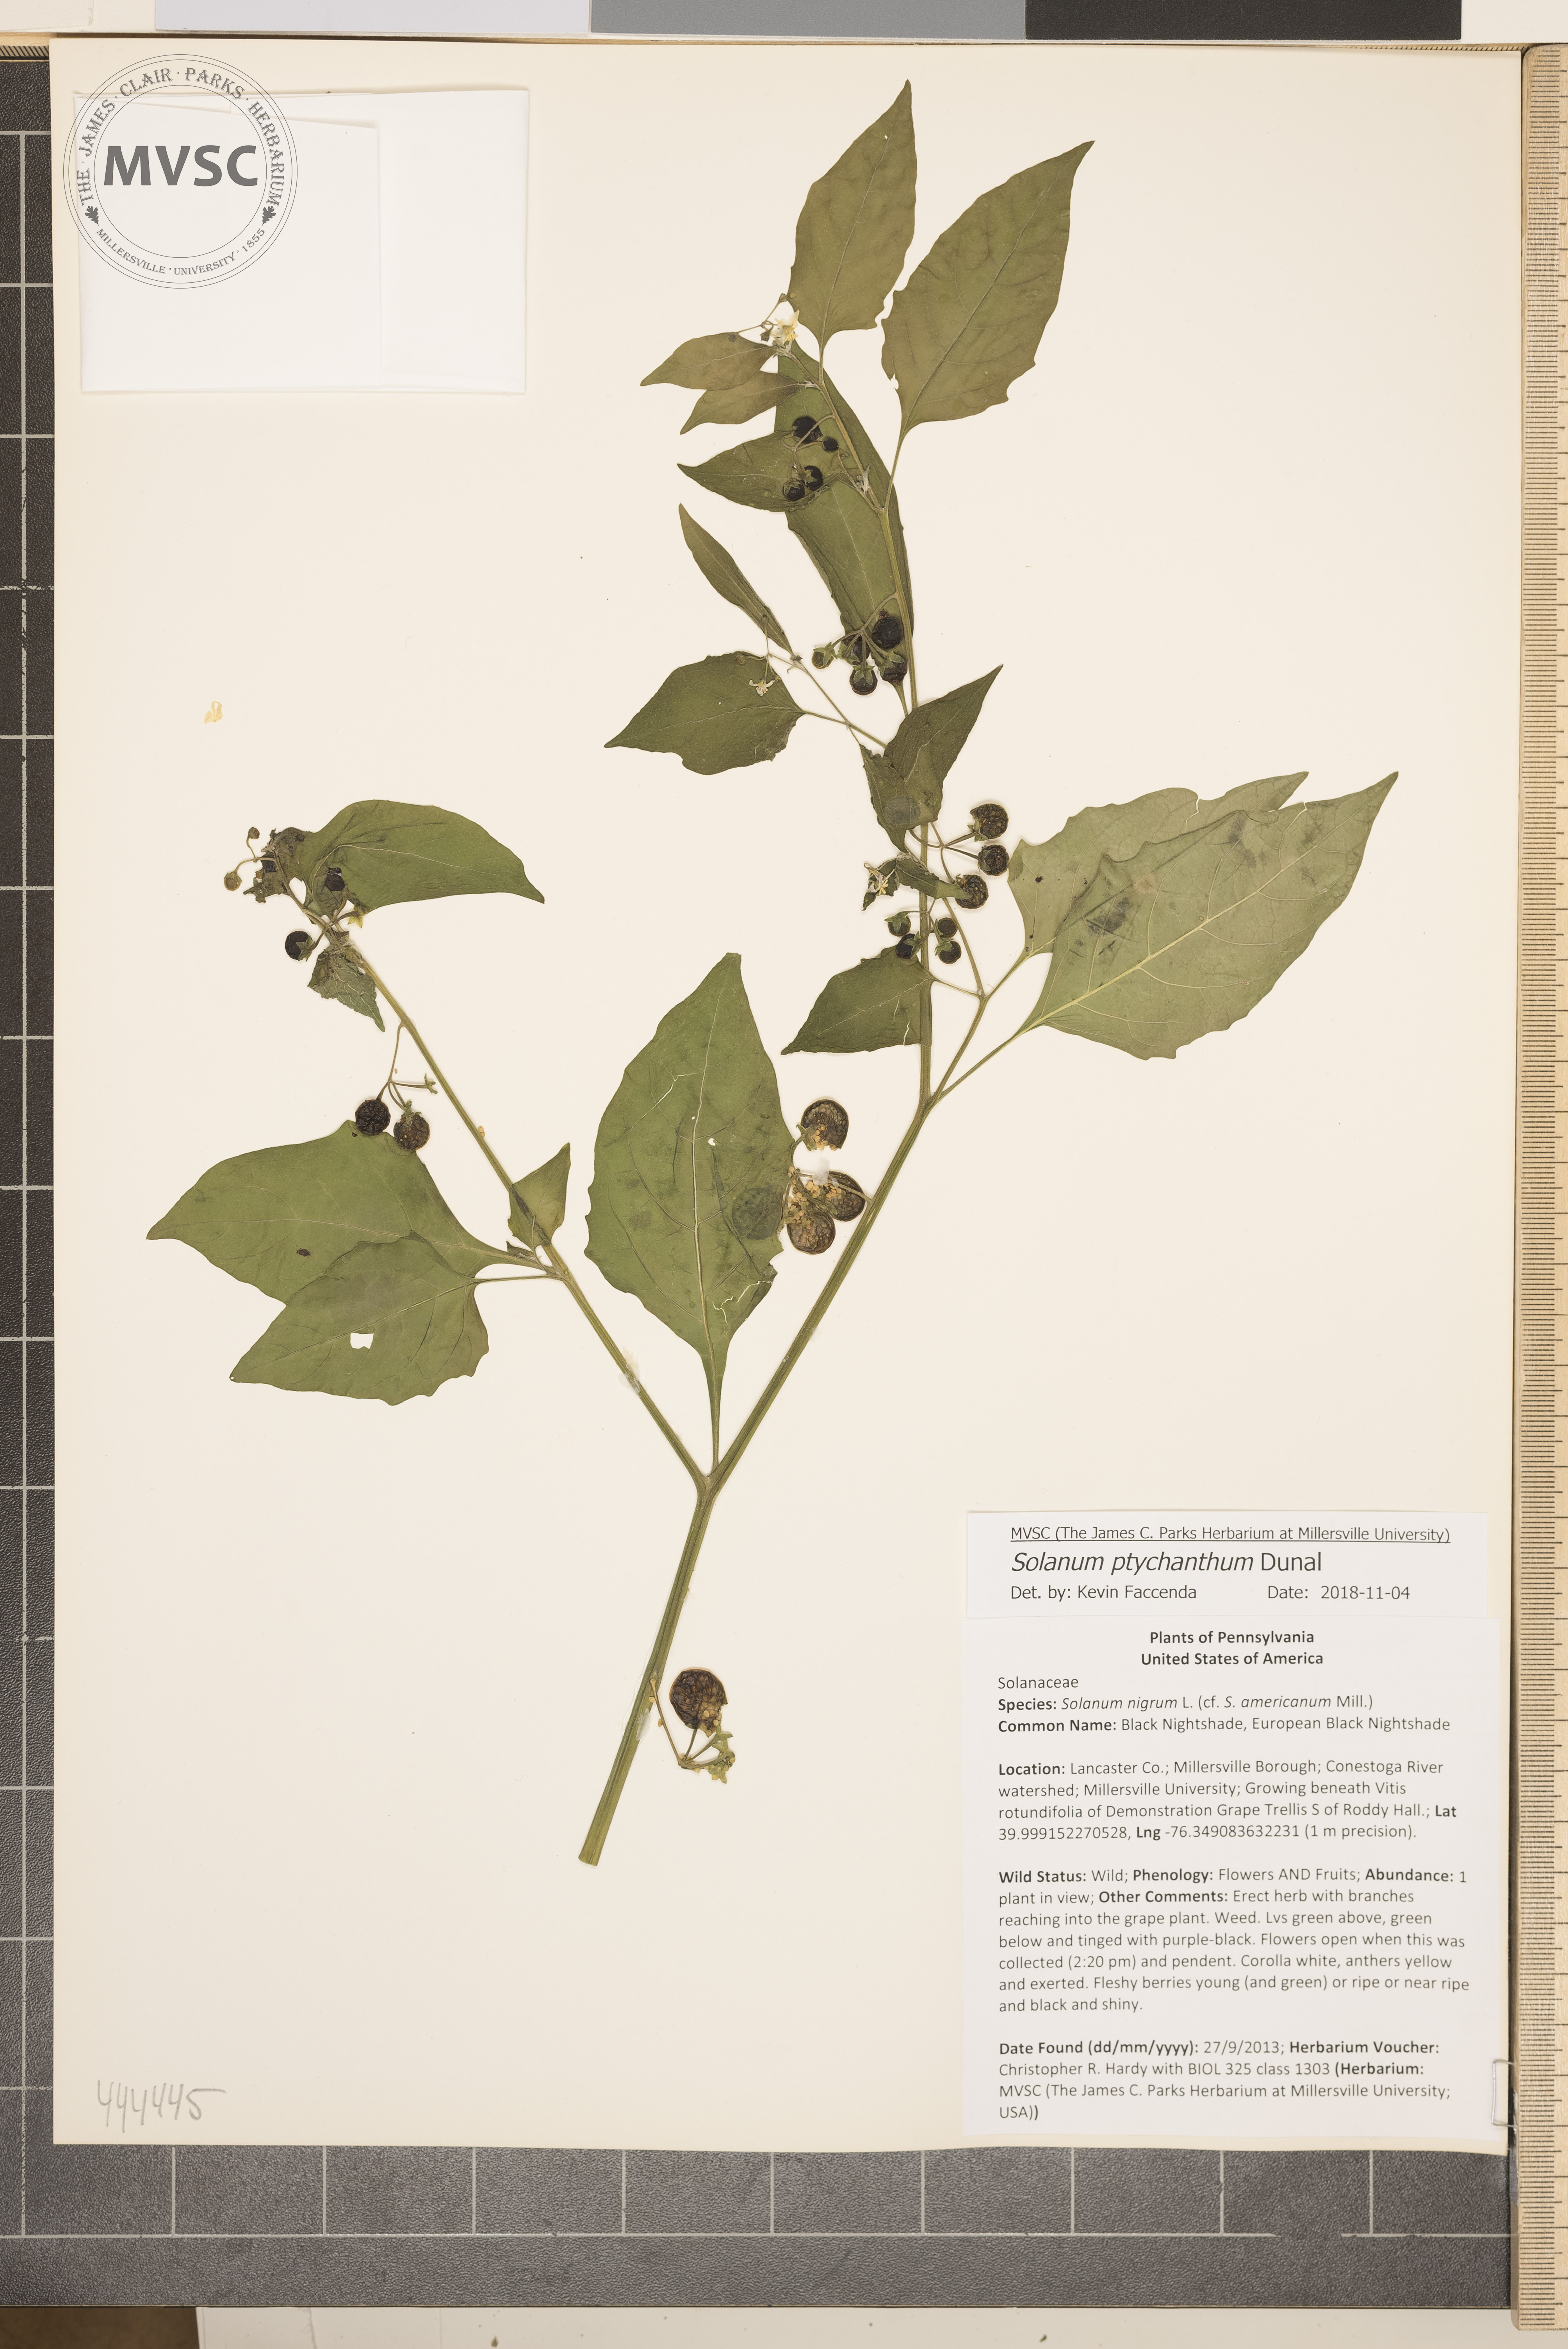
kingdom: Plantae
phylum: Tracheophyta
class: Magnoliopsida
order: Solanales
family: Solanaceae
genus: Solanum
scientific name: Solanum americanum
